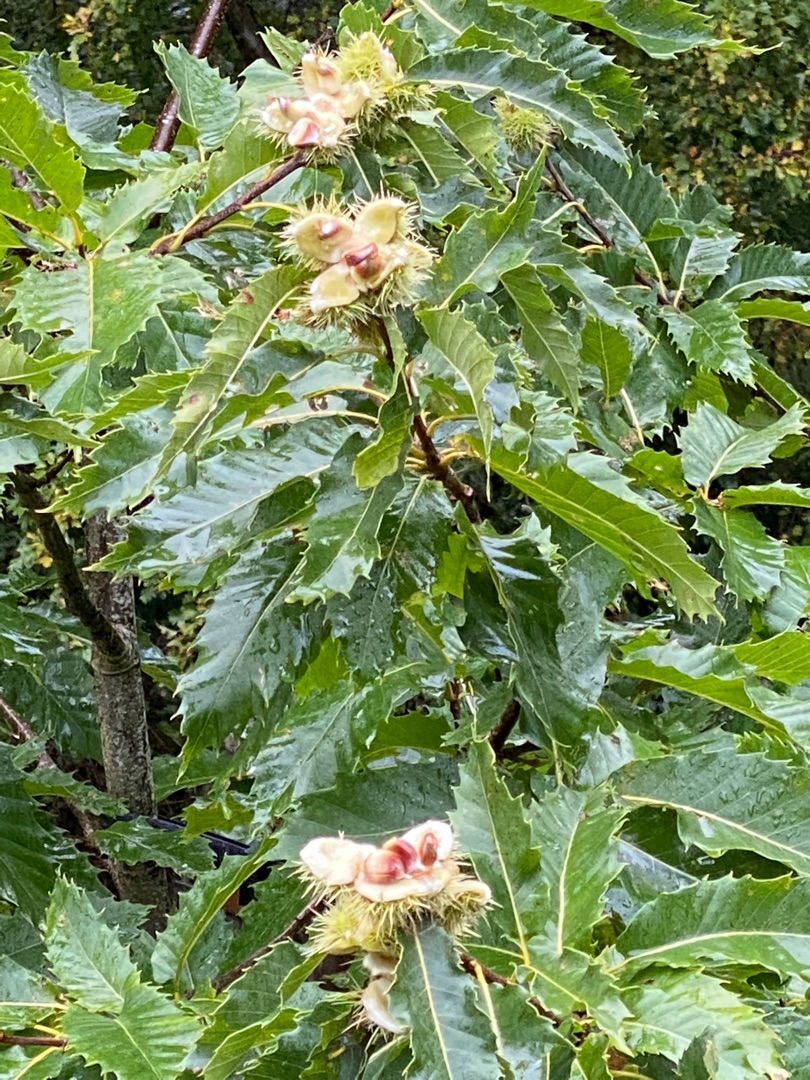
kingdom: Plantae
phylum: Tracheophyta
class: Magnoliopsida
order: Fagales
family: Fagaceae
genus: Castanea
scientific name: Castanea sativa
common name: Ægte kastanie
